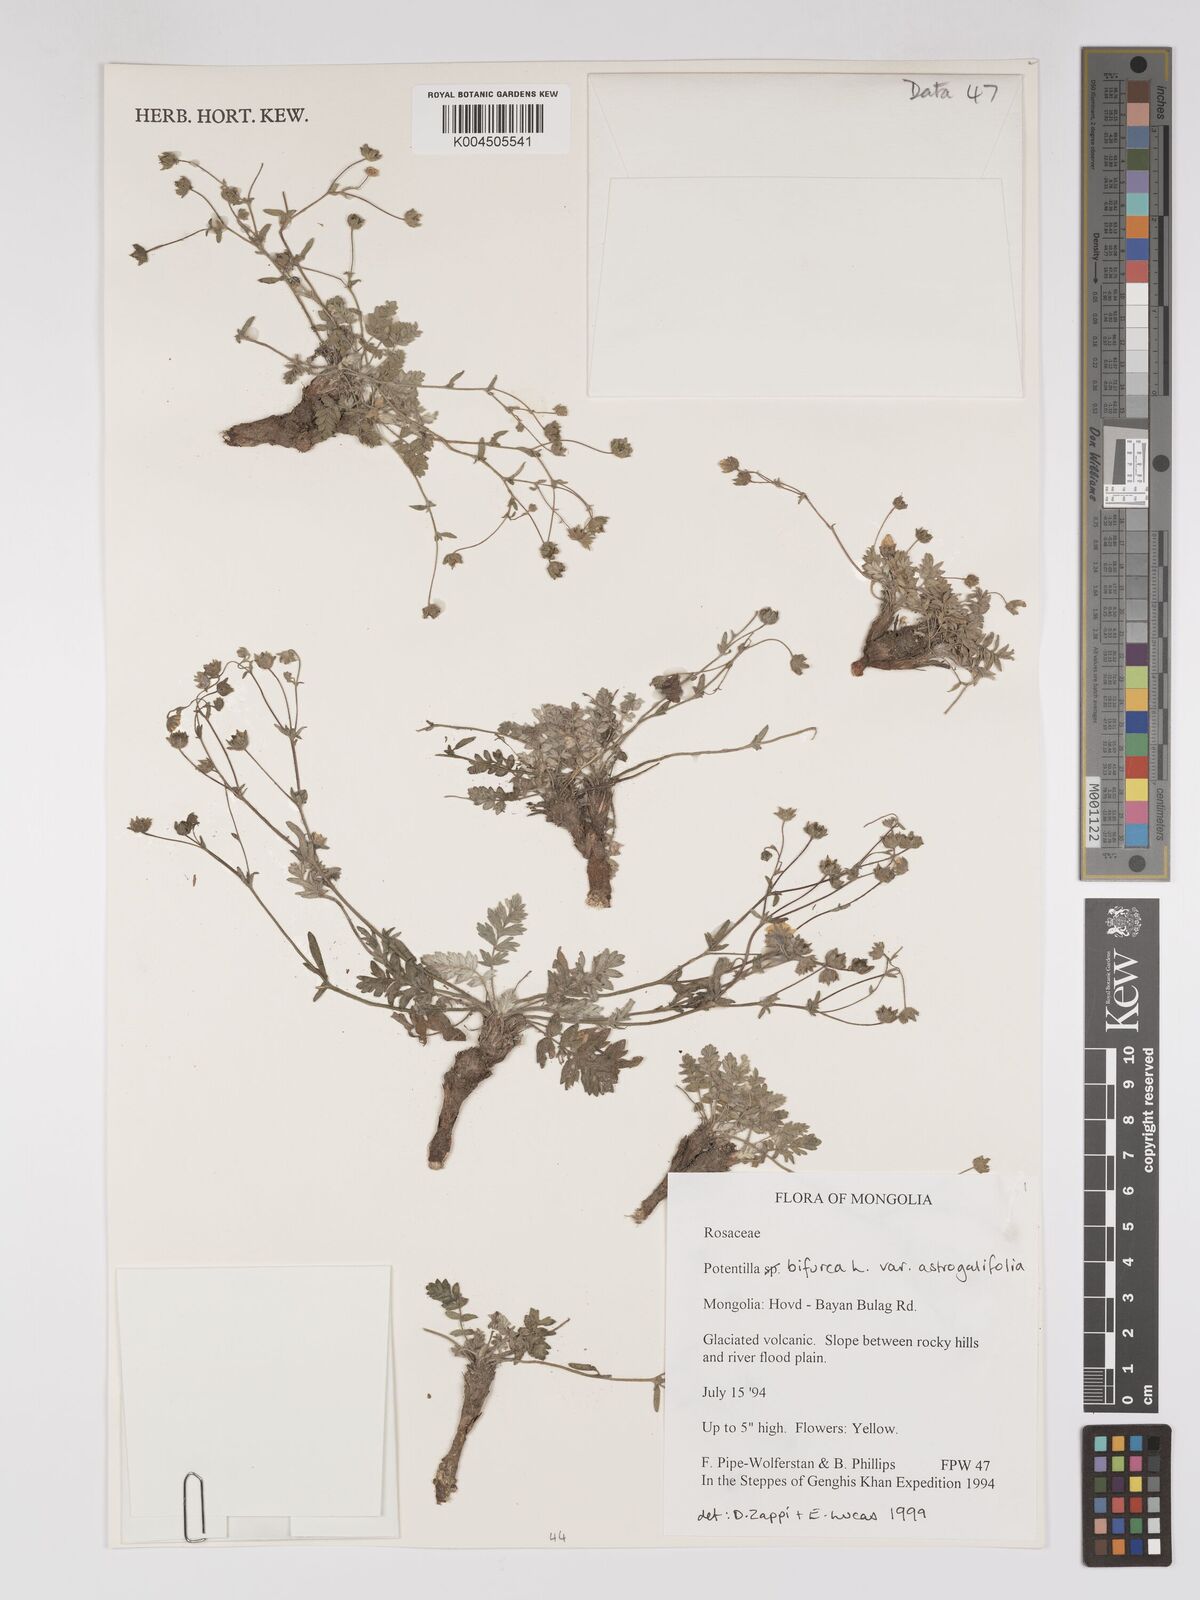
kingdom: Plantae
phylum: Tracheophyta
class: Magnoliopsida
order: Rosales
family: Rosaceae
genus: Sibbaldianthe
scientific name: Sibbaldianthe bifurca
